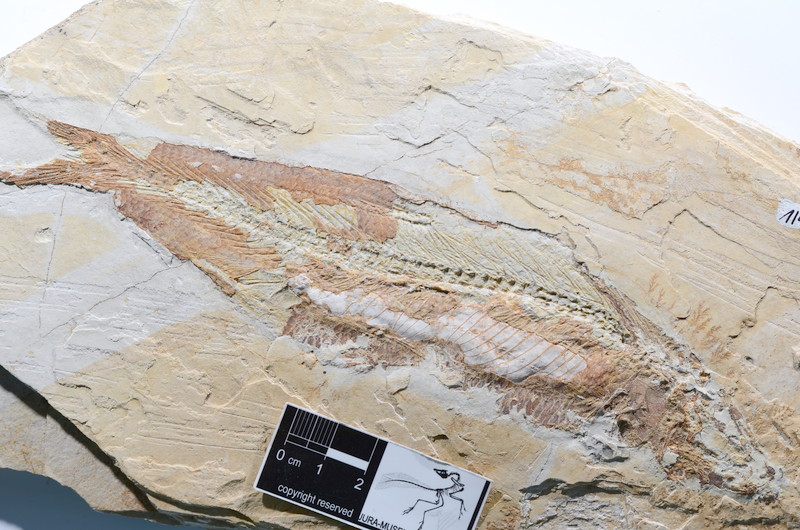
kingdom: Animalia
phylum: Chordata
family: Ascalaboidae
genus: Tharsis
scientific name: Tharsis dubius
